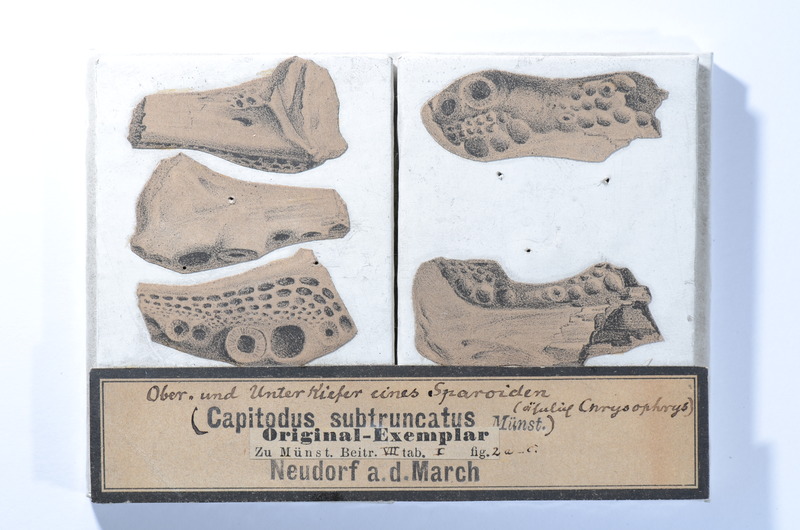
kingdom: Animalia
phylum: Chordata
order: Cypriniformes
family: Cyprinidae
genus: Capitodus
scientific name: Capitodus
